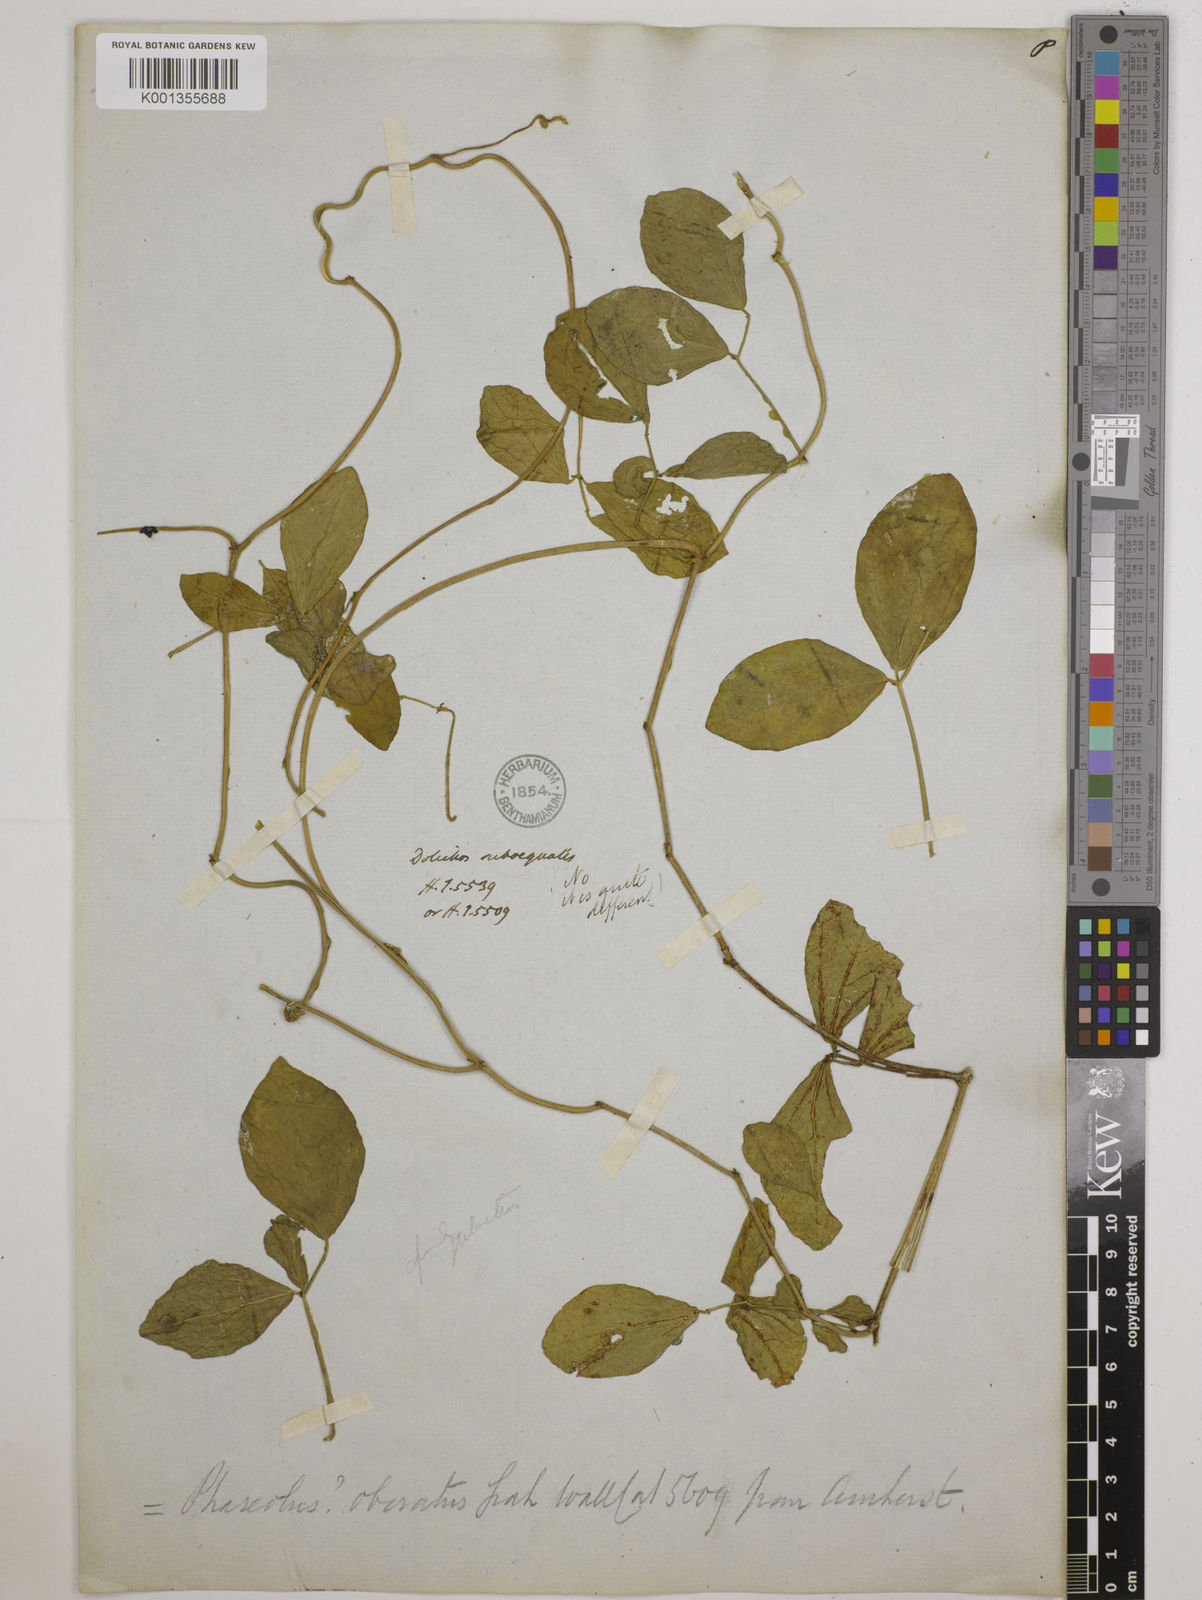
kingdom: Plantae
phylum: Tracheophyta
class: Magnoliopsida
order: Fabales
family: Fabaceae
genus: Vigna
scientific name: Vigna marina
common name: Dune-bean
